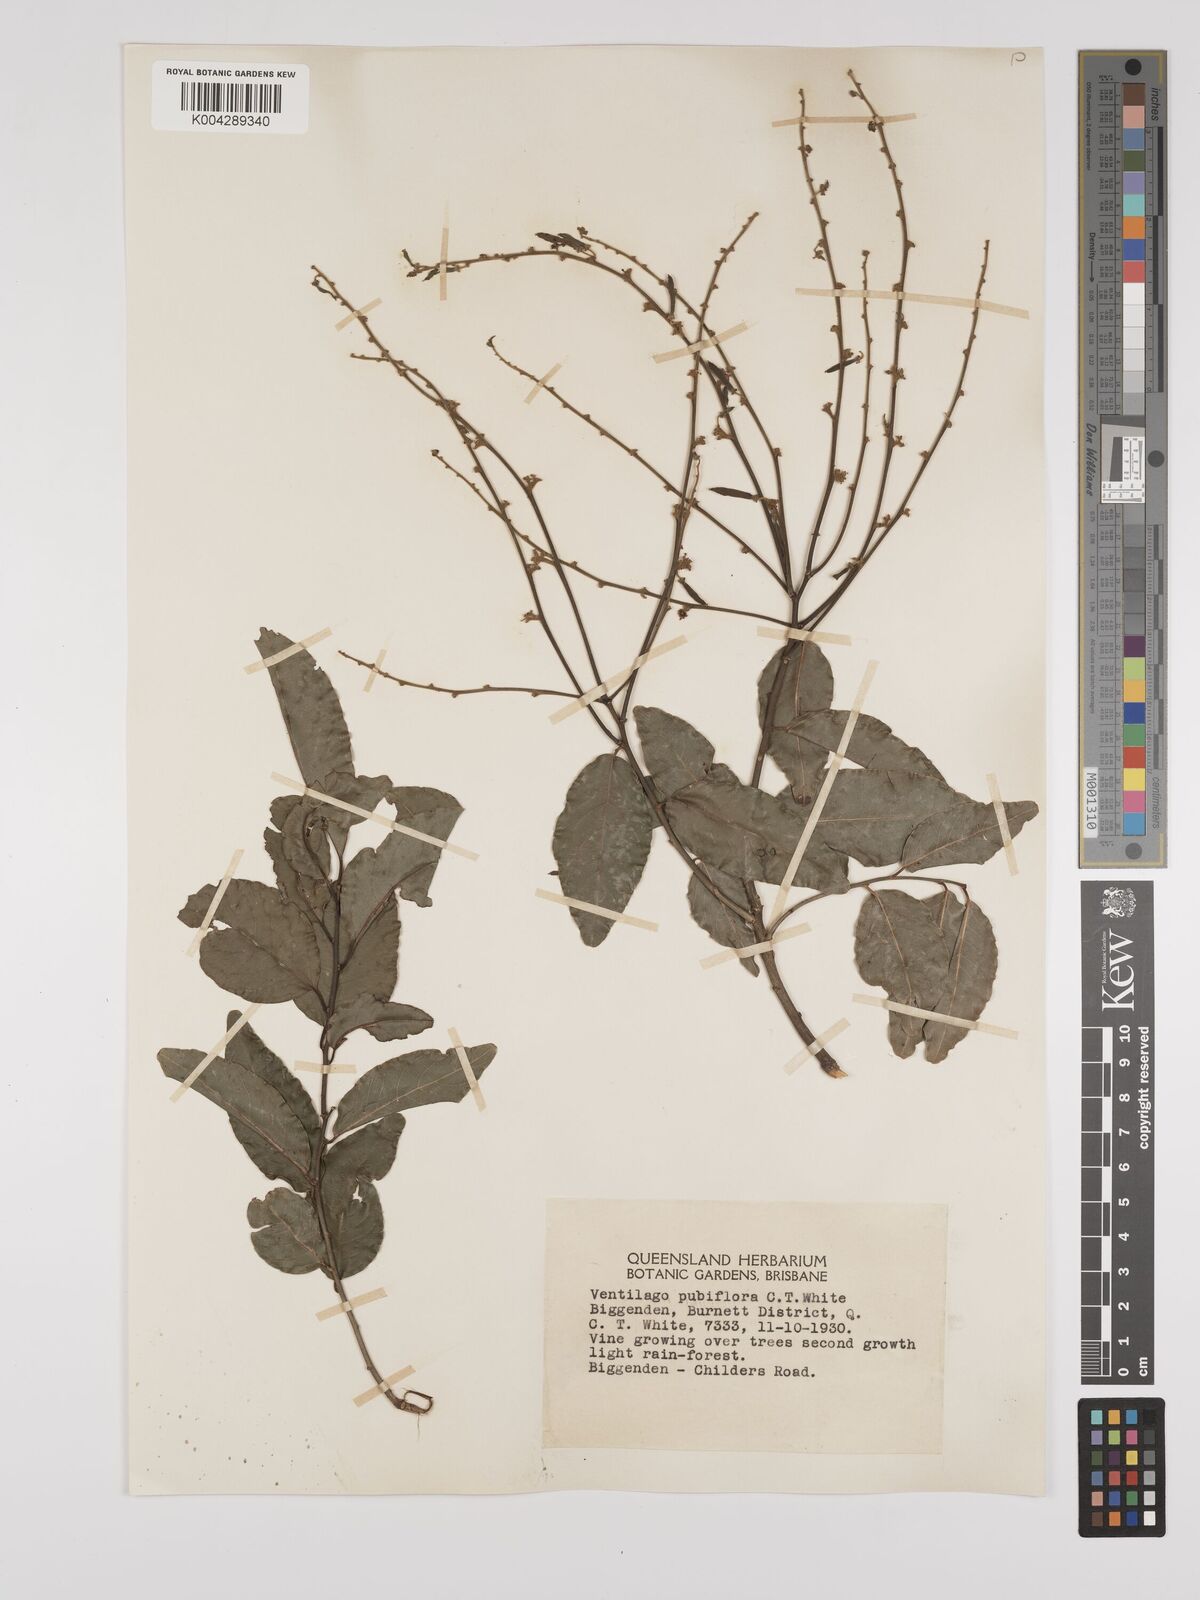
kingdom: Plantae
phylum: Tracheophyta
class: Magnoliopsida
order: Rosales
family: Rhamnaceae
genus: Ventilago
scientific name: Ventilago pubiflora
